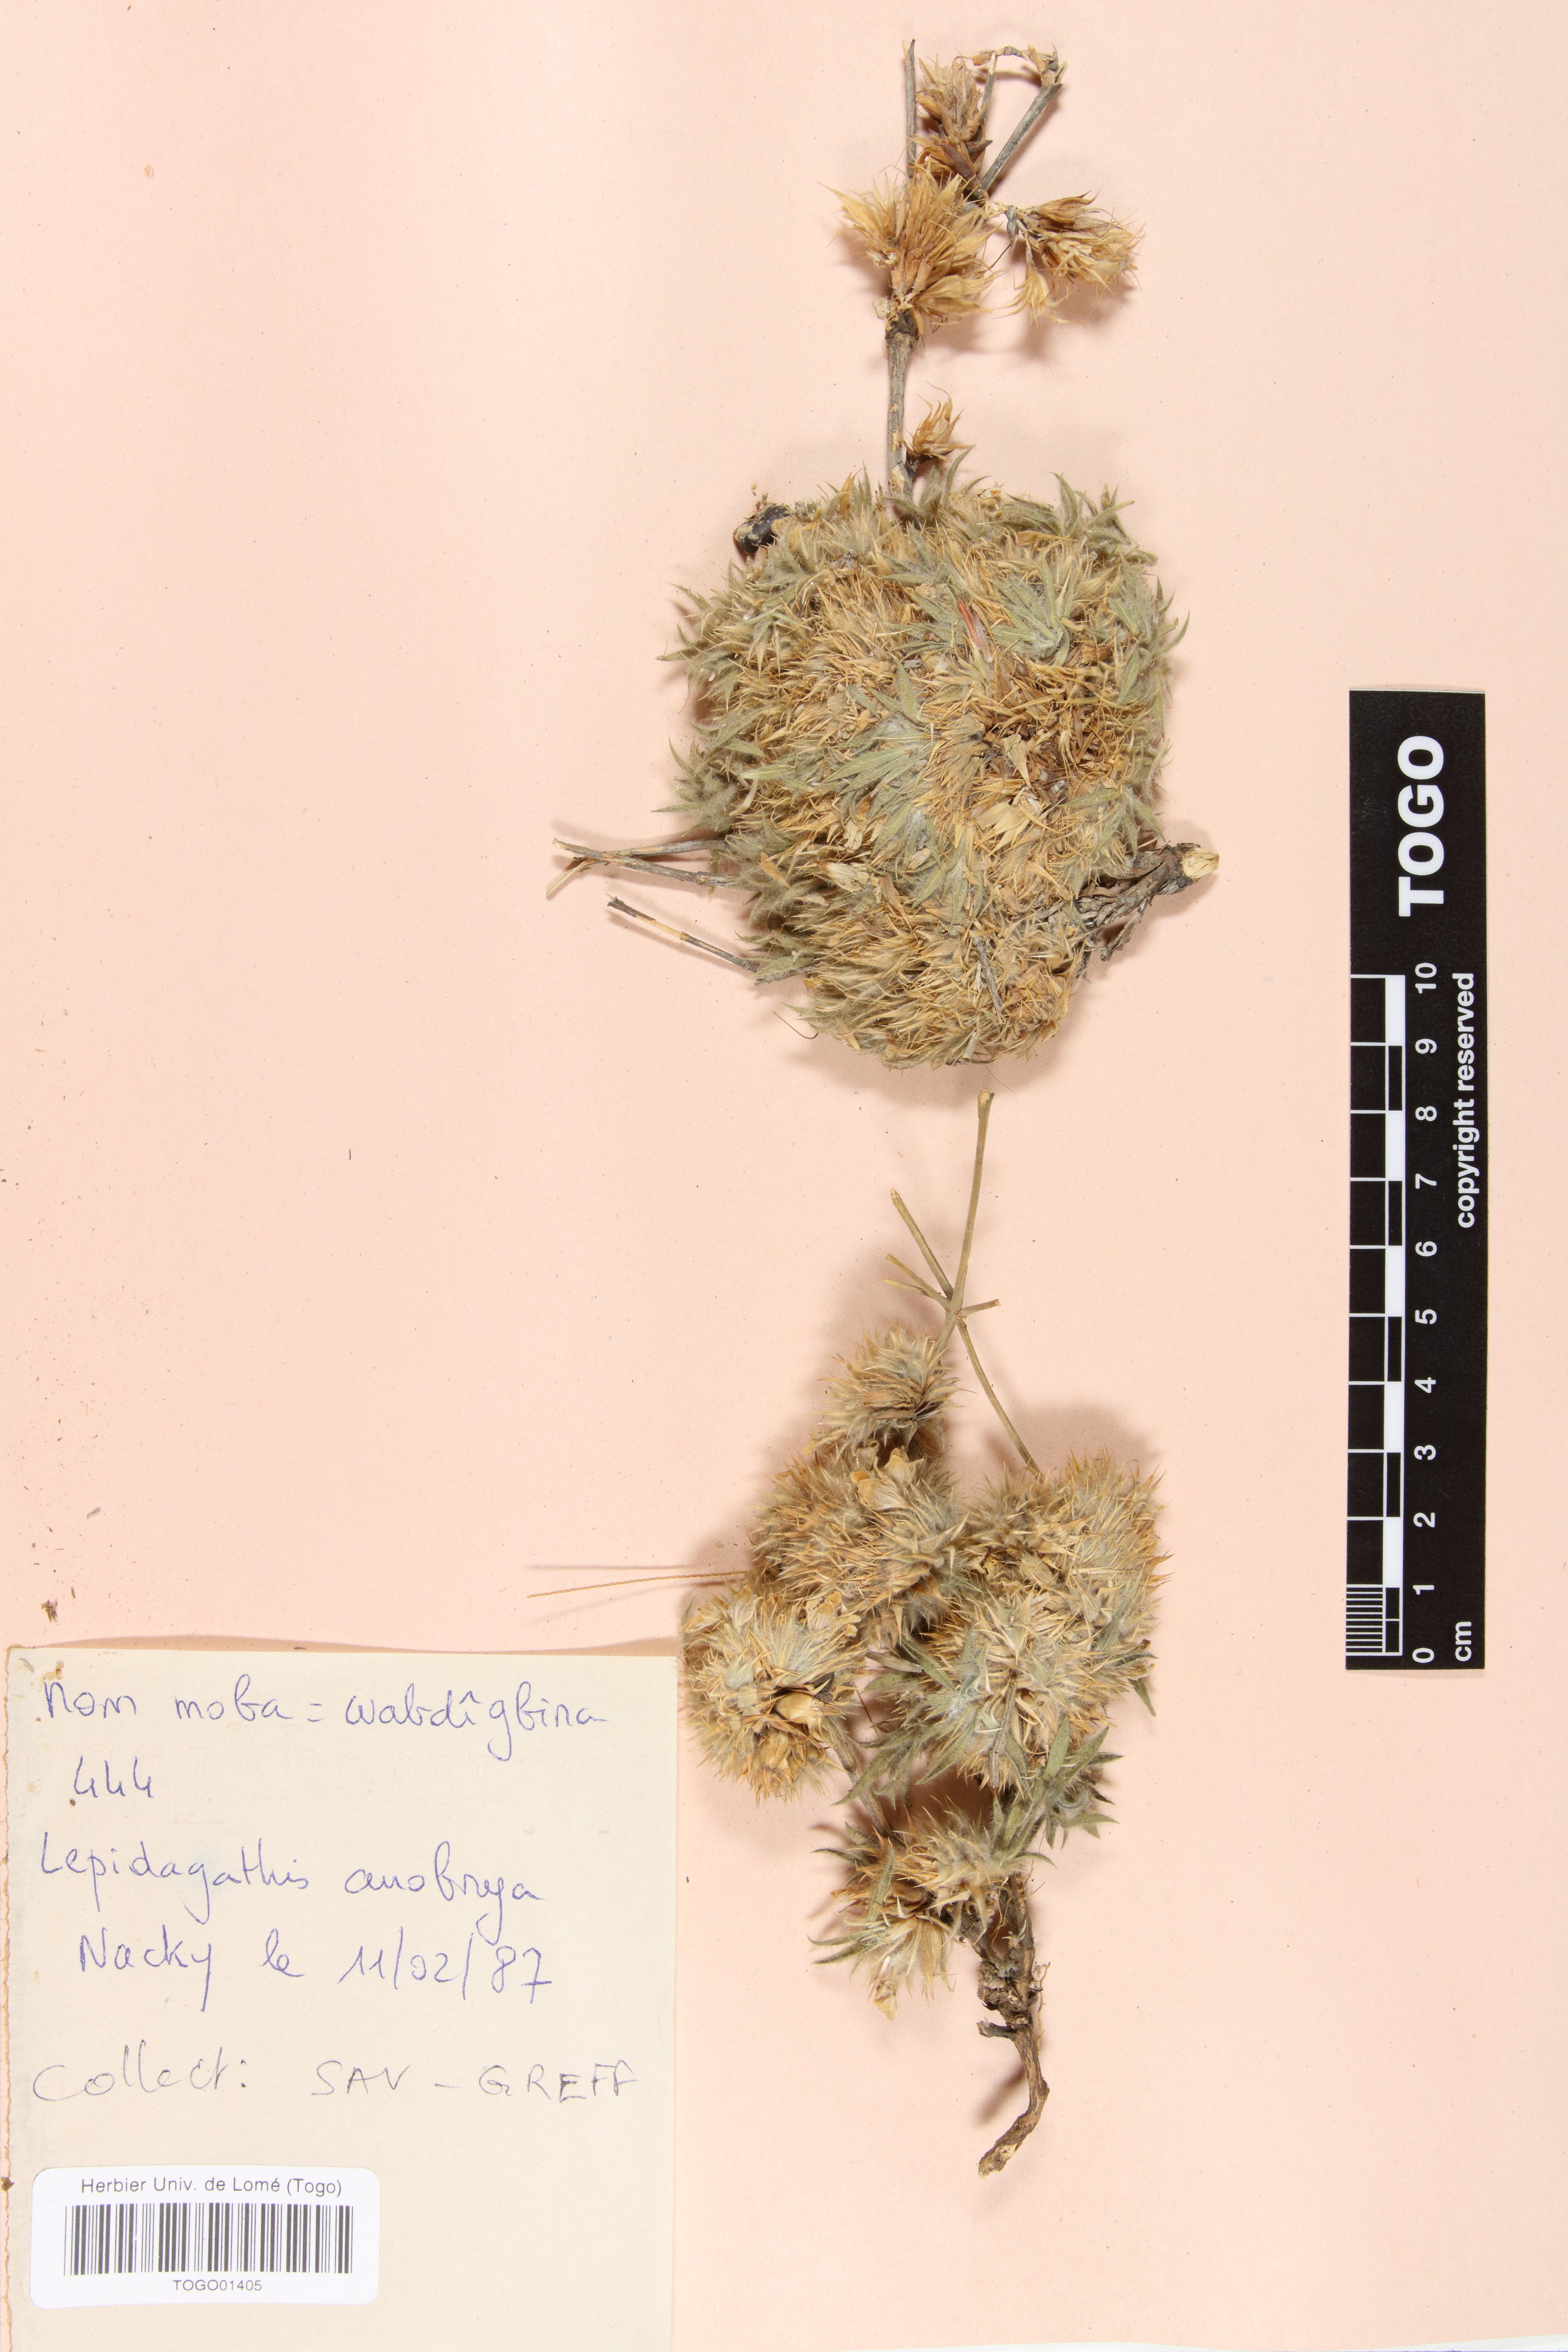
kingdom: Plantae
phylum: Tracheophyta
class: Magnoliopsida
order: Lamiales
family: Acanthaceae
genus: Lepidagathis
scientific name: Lepidagathis anobrya
